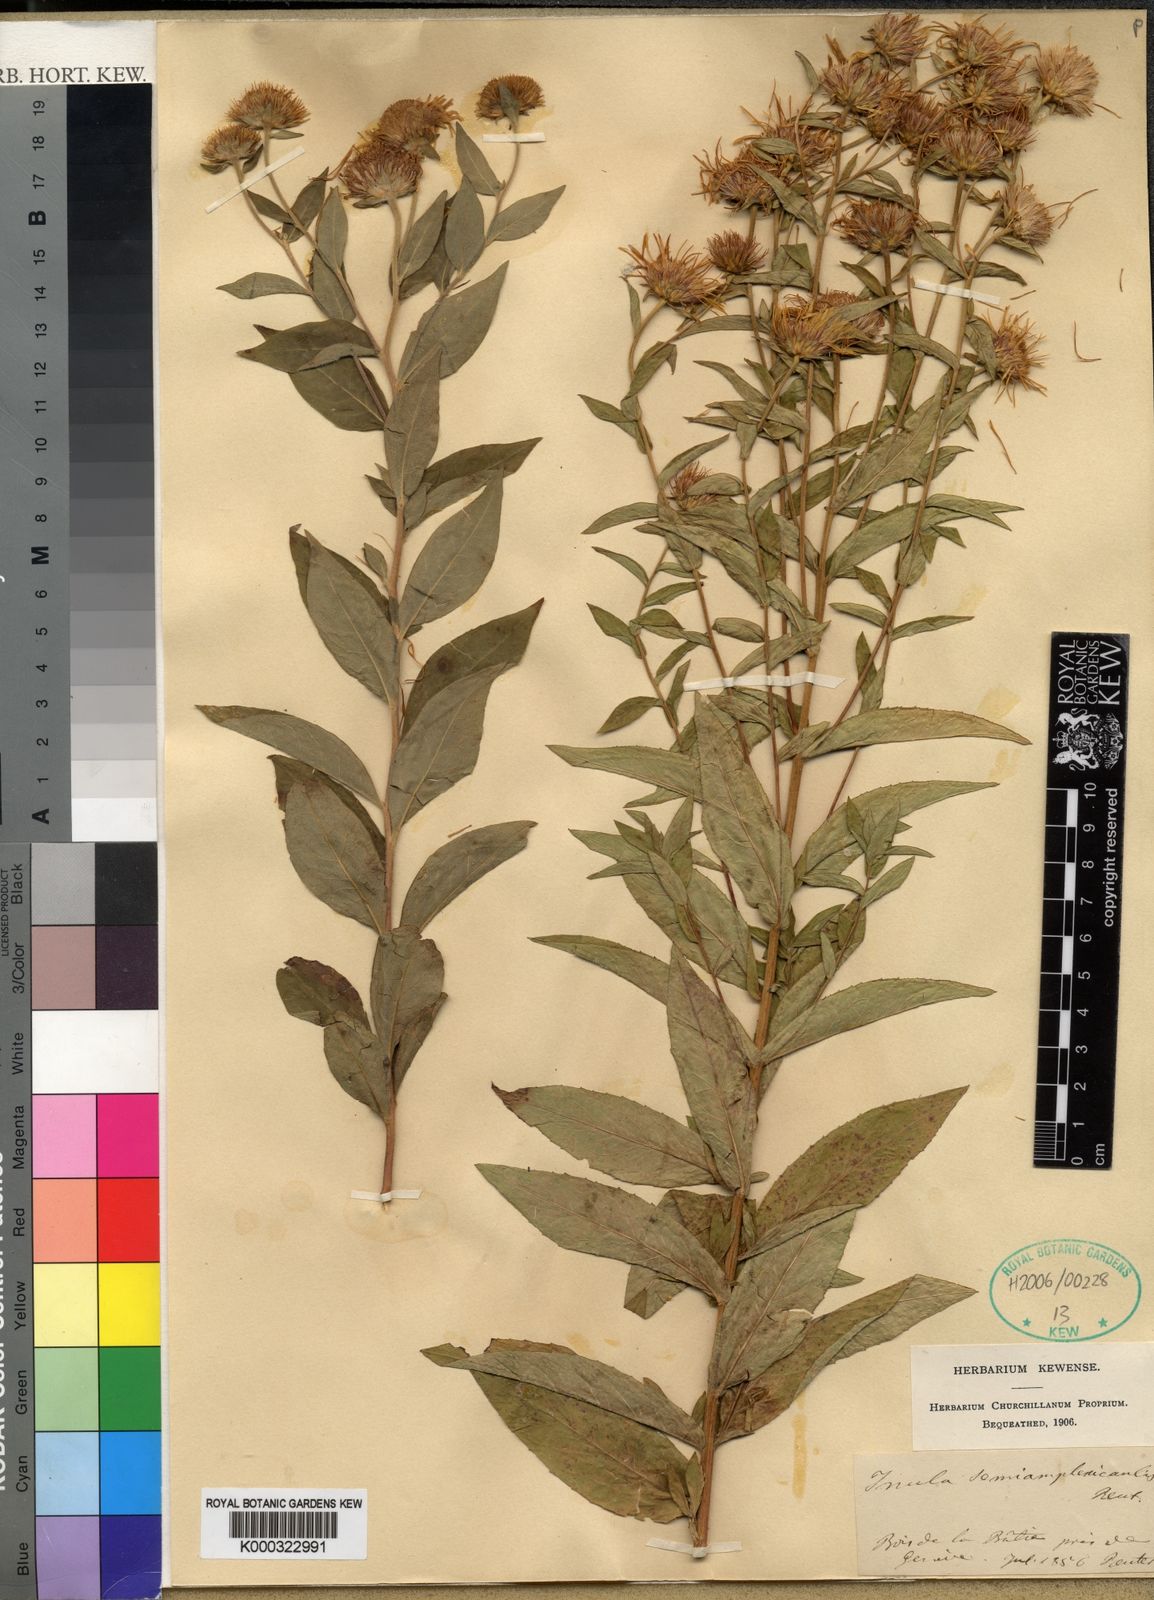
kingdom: Plantae
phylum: Tracheophyta
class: Magnoliopsida
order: Asterales
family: Asteraceae
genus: Pentanema
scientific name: Pentanema salicinum
